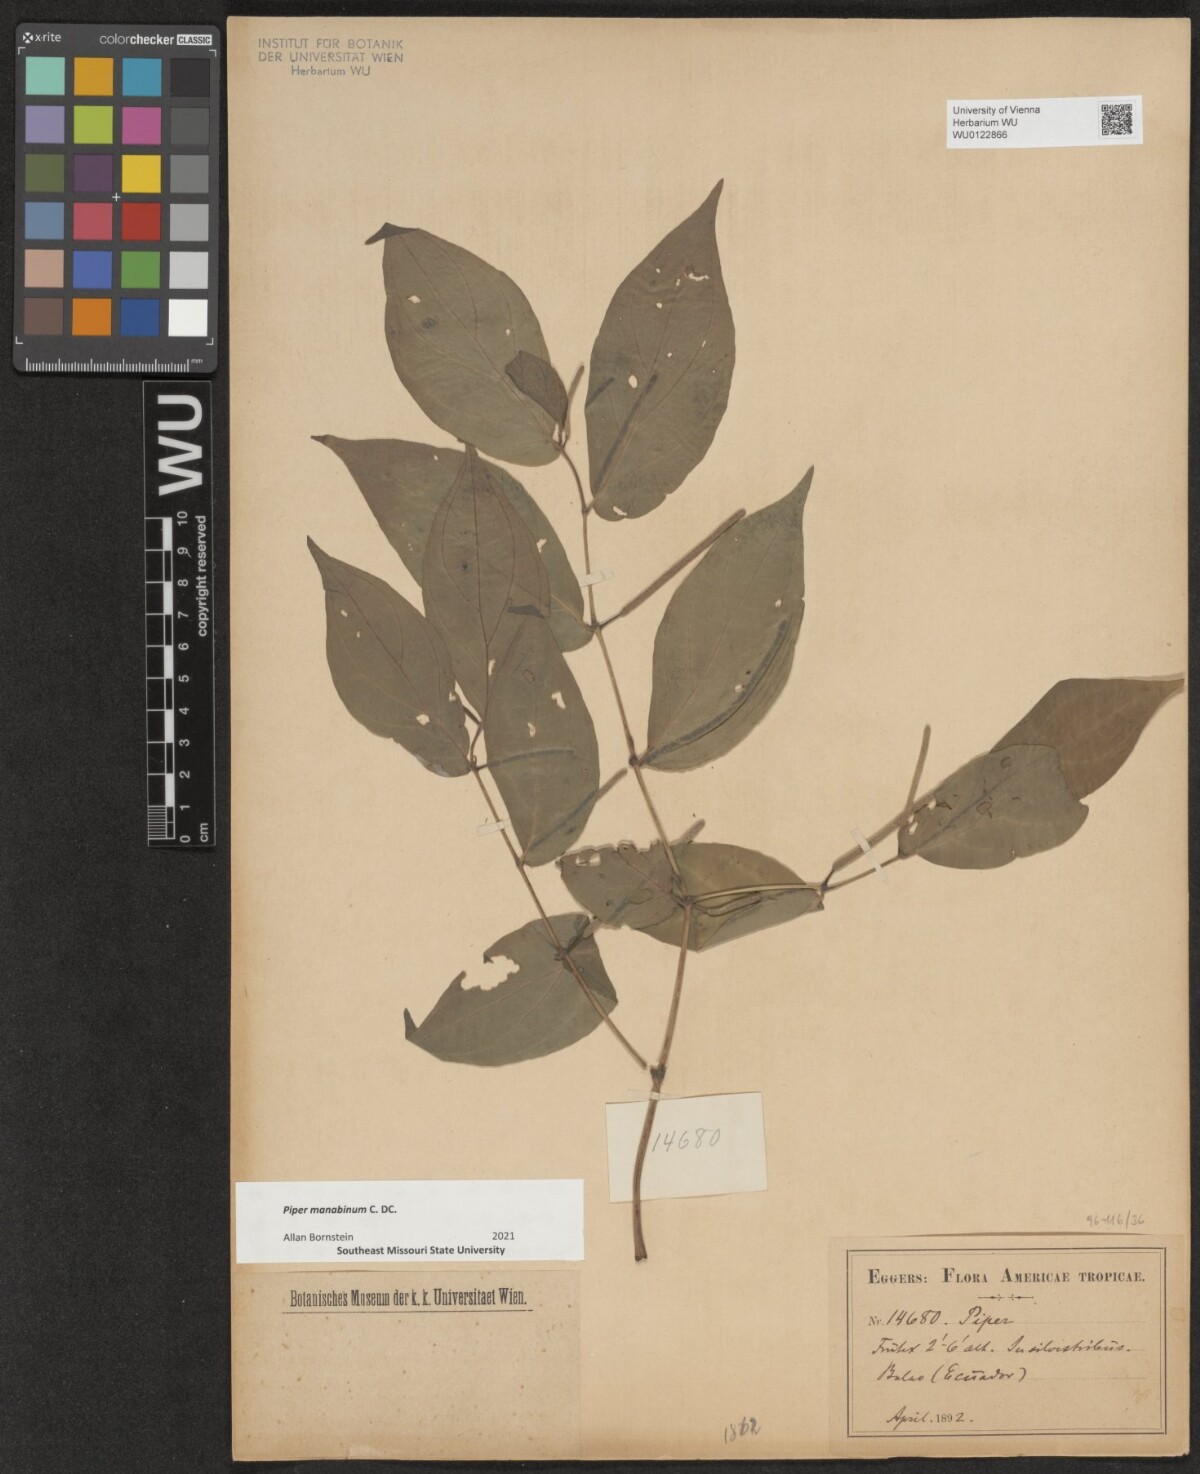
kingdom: Plantae
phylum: Tracheophyta
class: Magnoliopsida
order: Piperales
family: Piperaceae
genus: Piper
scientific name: Piper manabinum
